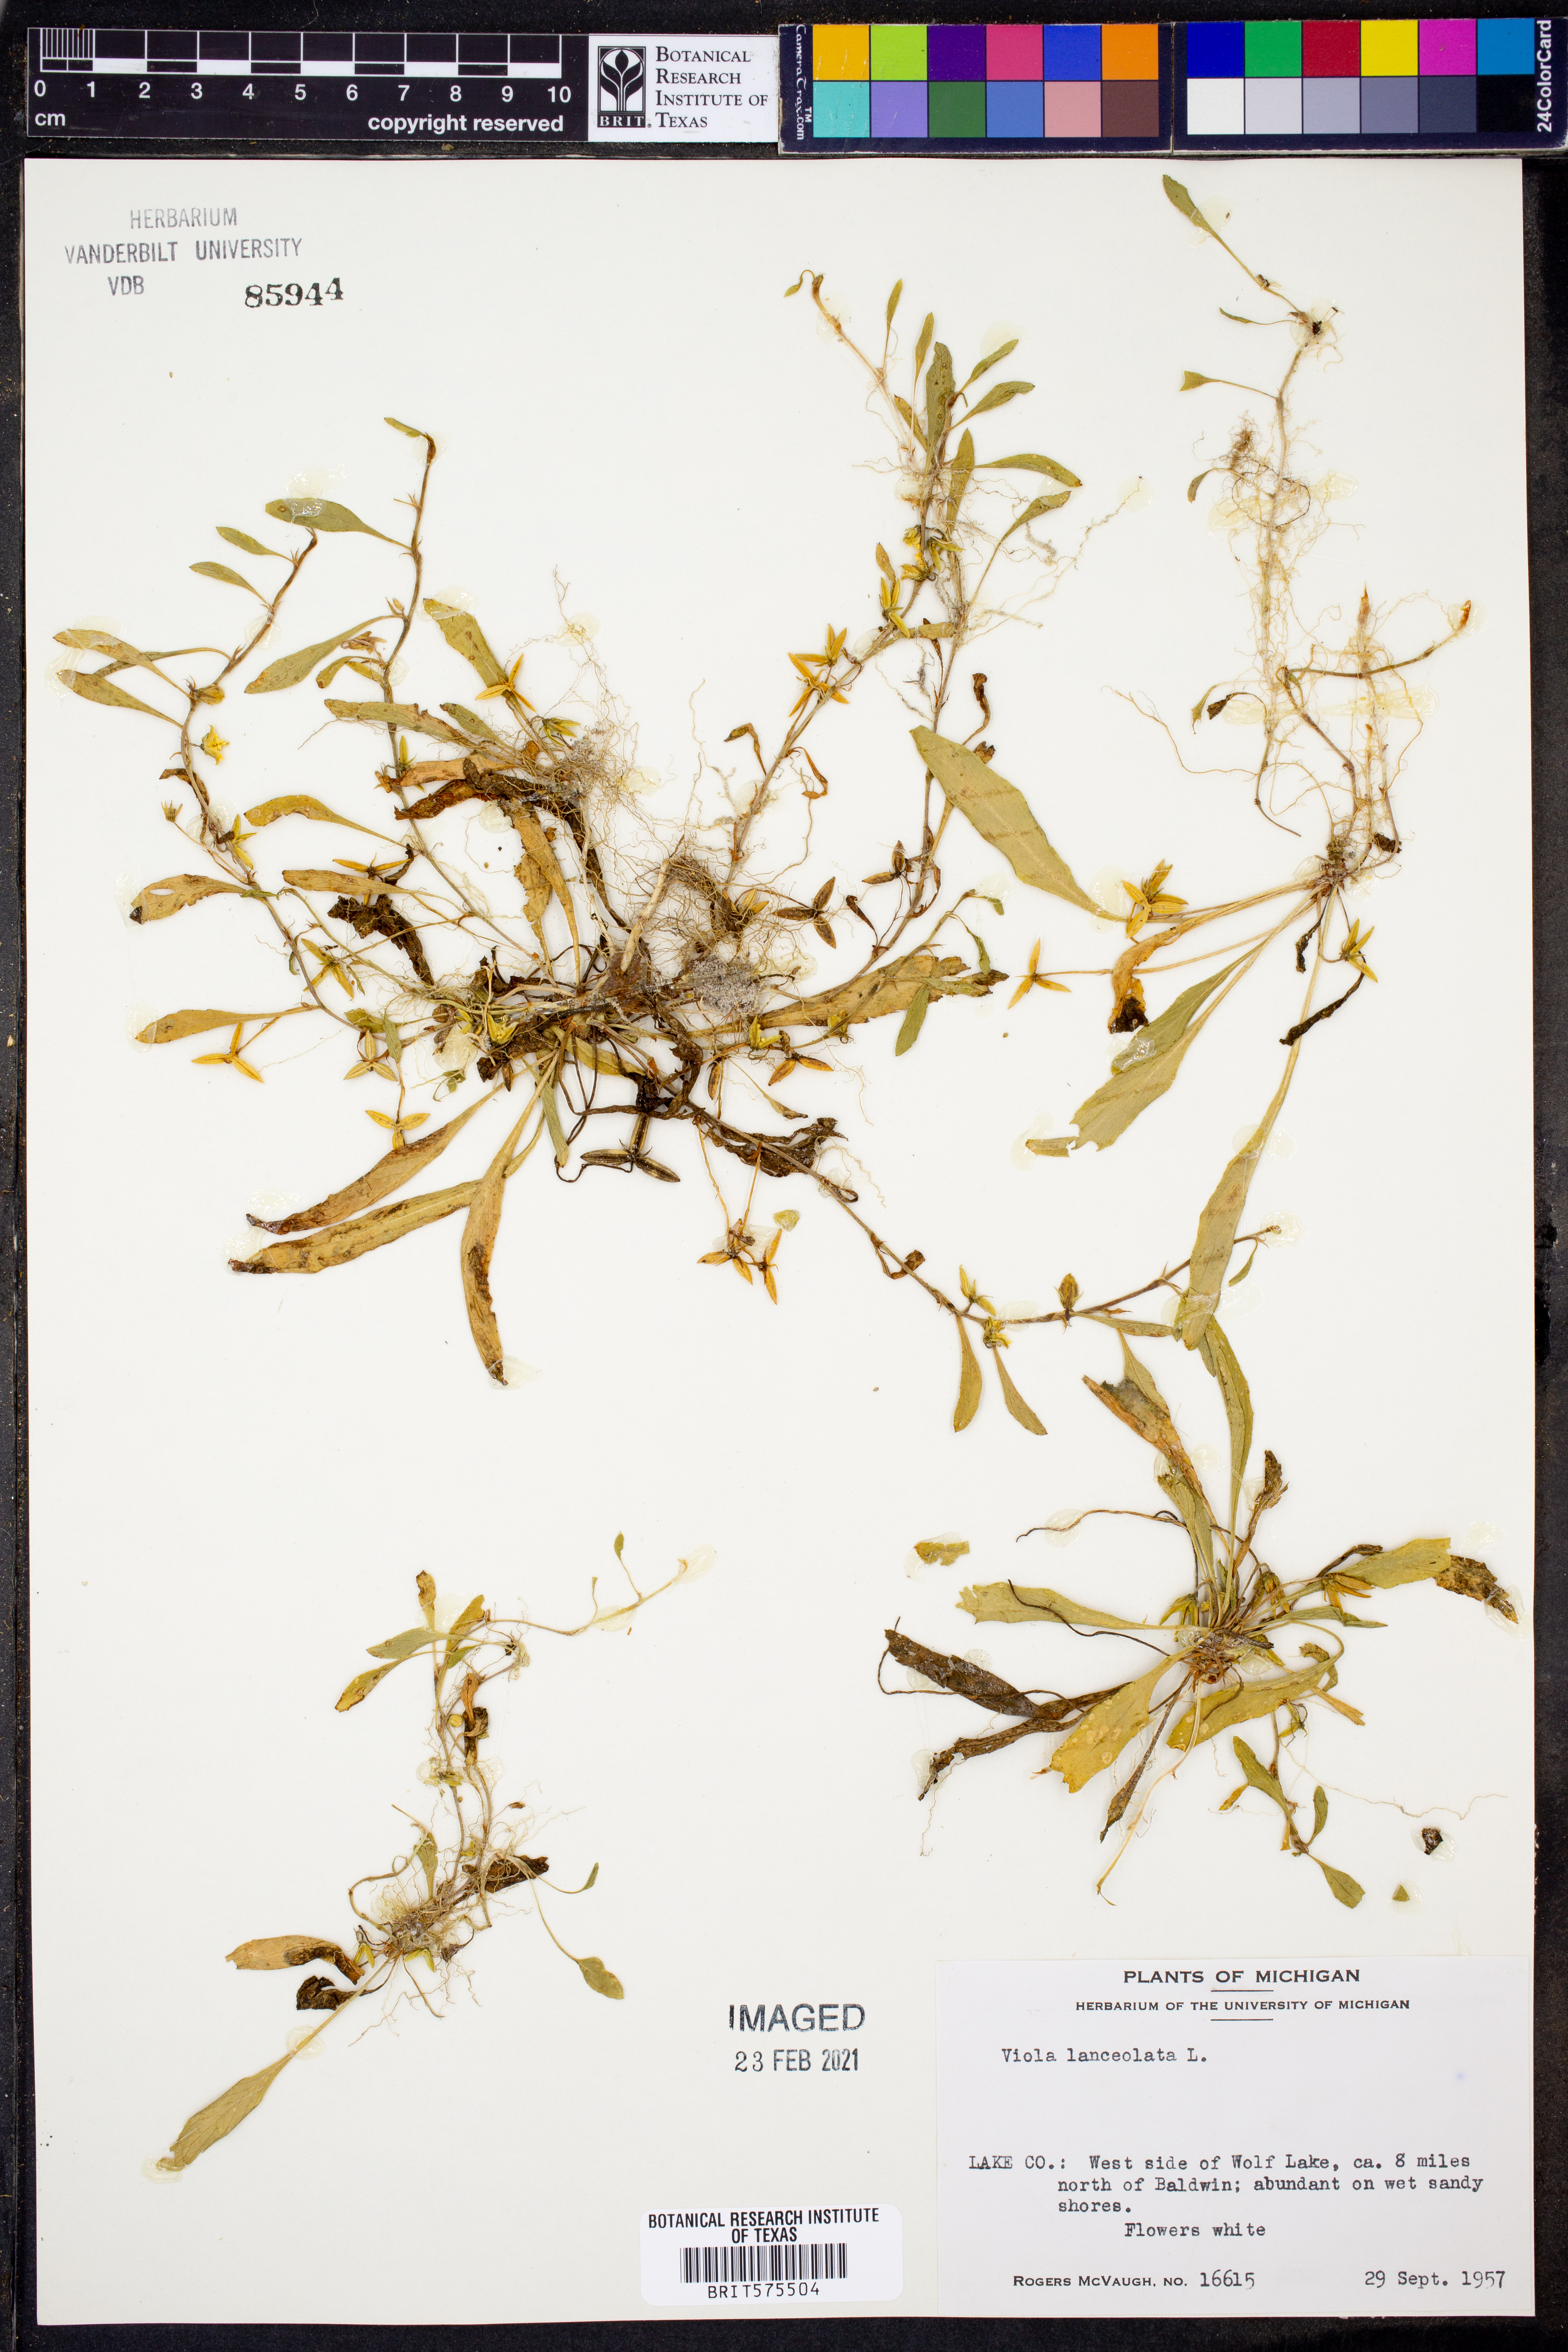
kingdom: Plantae
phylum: Tracheophyta
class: Magnoliopsida
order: Malpighiales
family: Violaceae
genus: Viola
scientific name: Viola lanceolata
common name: Bog white violet
